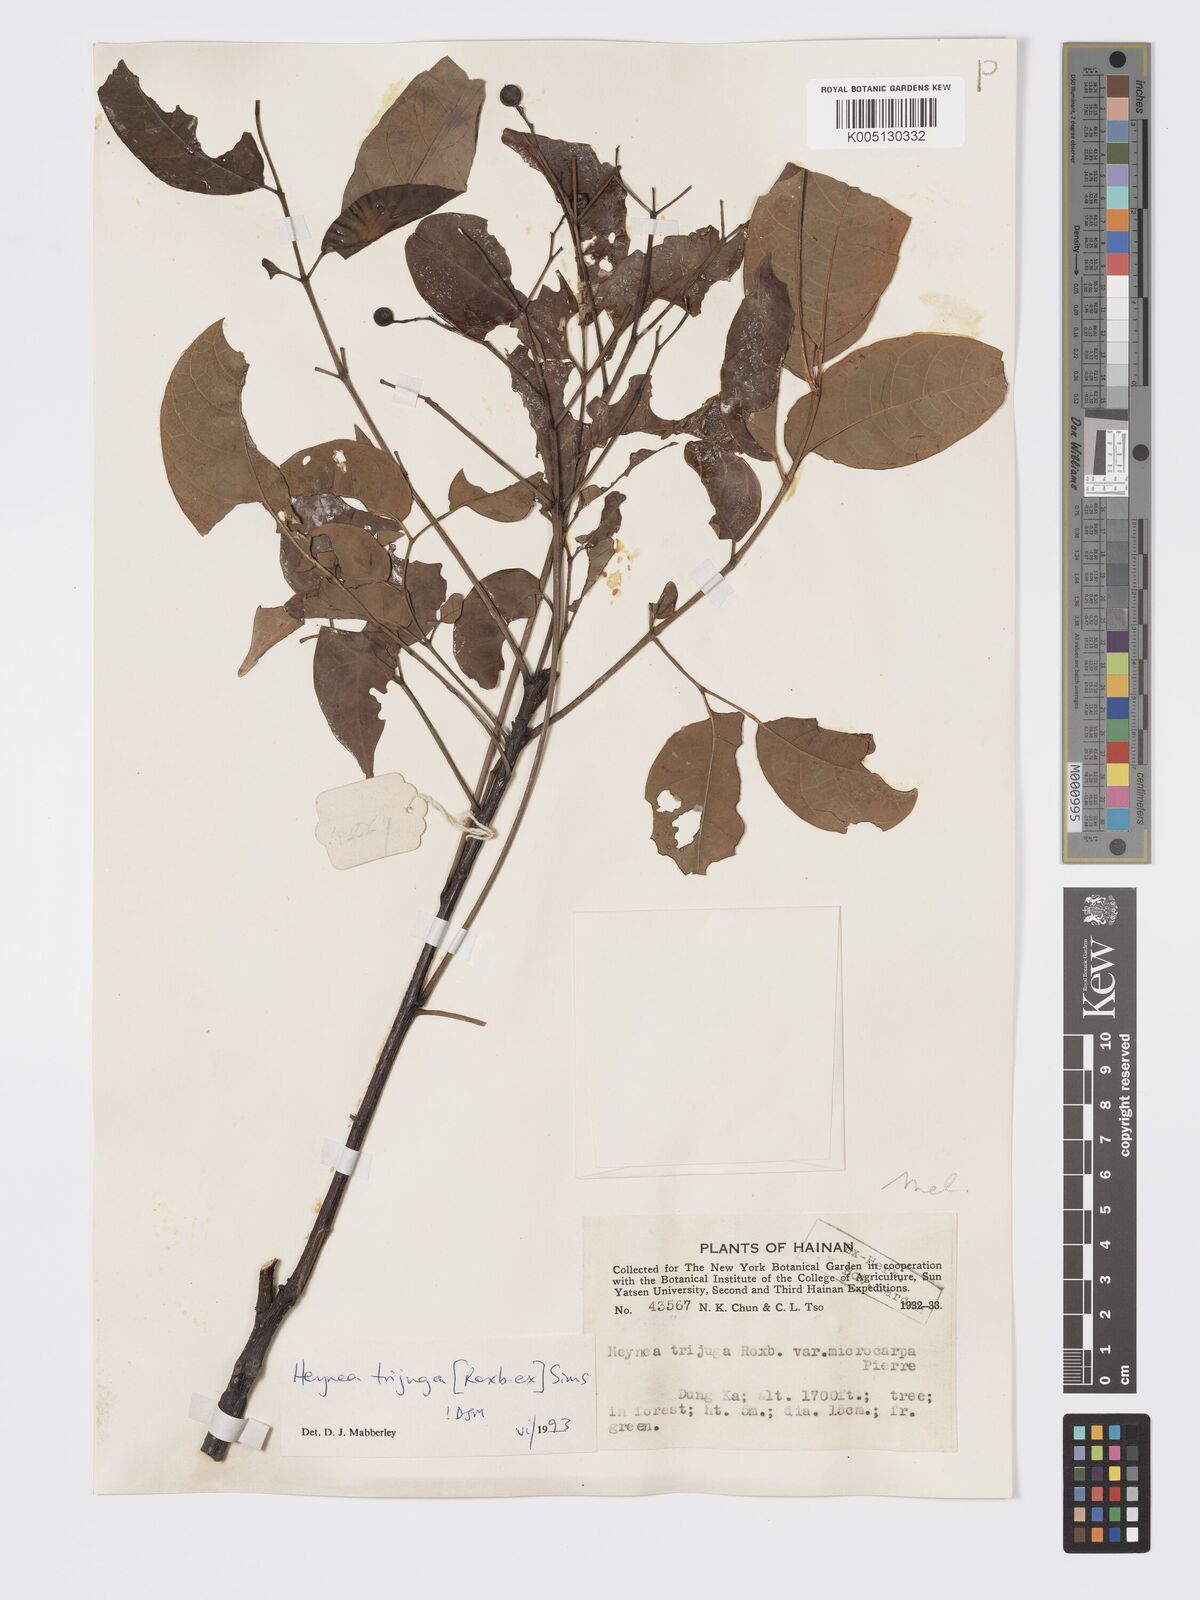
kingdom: Plantae
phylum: Tracheophyta
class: Magnoliopsida
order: Sapindales
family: Meliaceae
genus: Heynea
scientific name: Heynea trijuga
